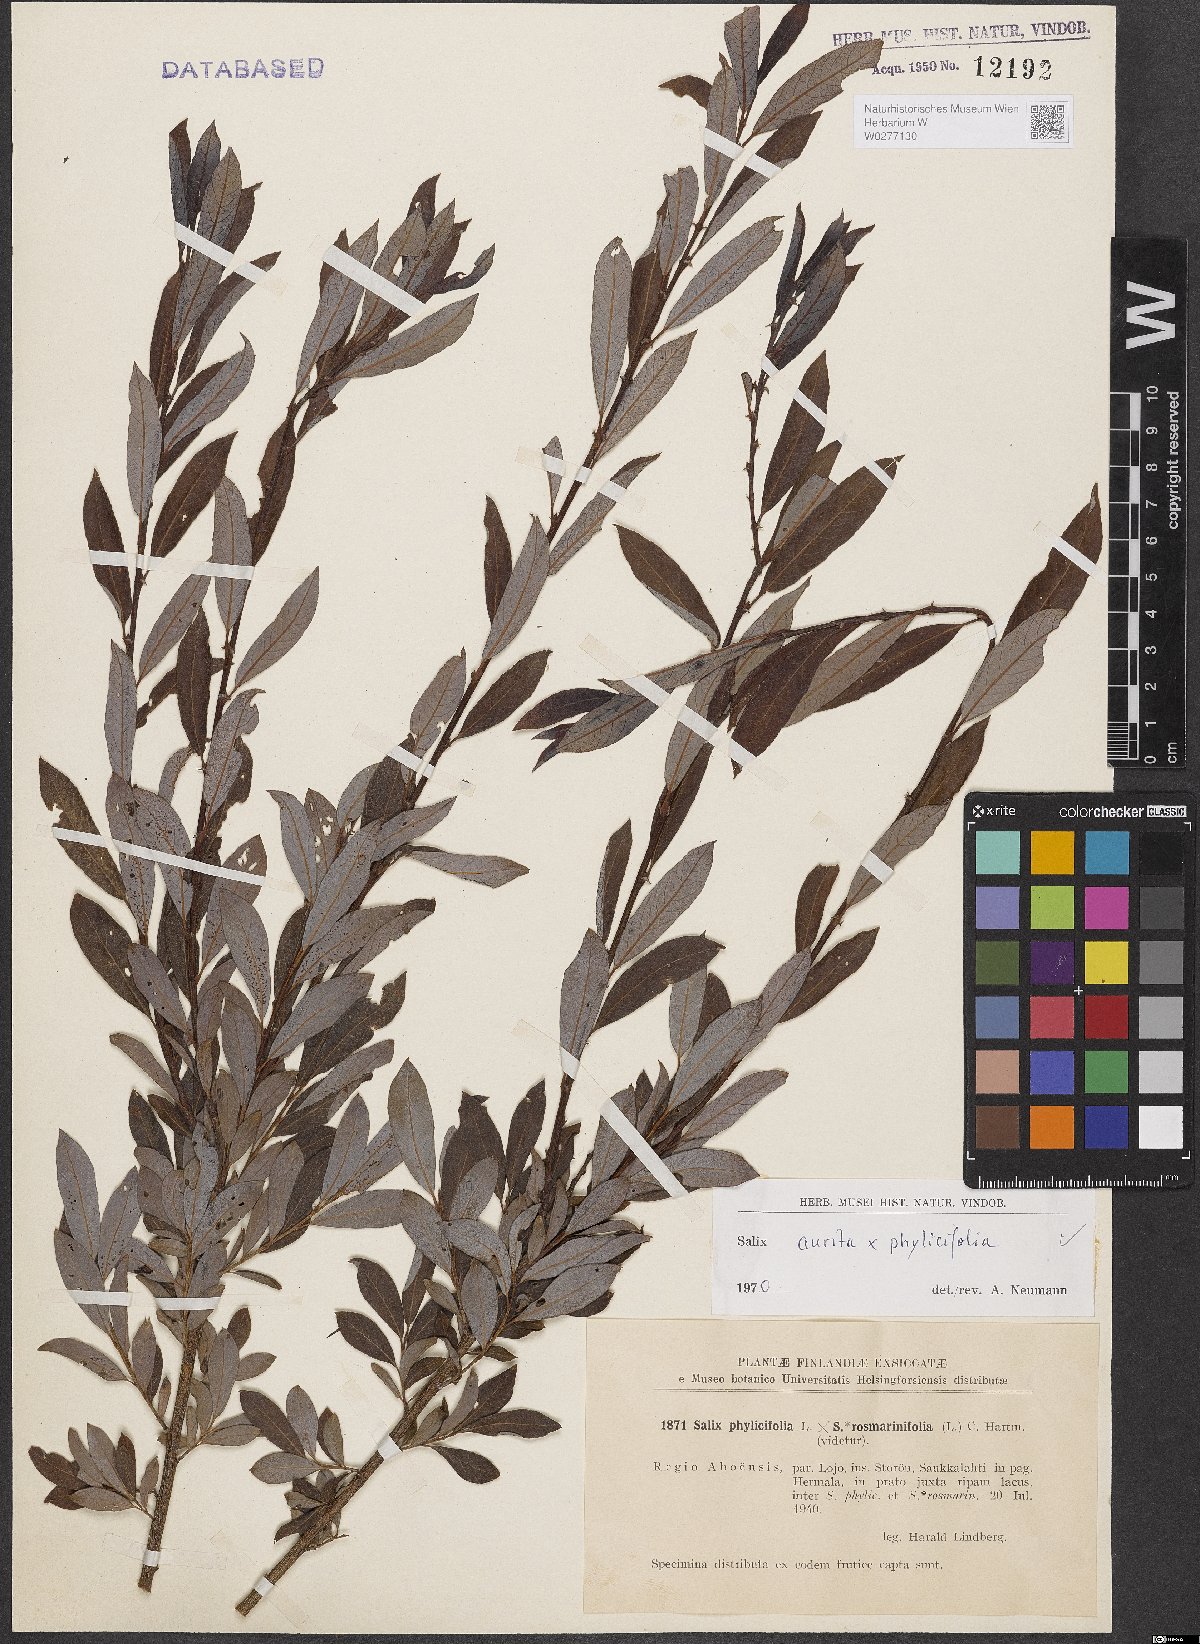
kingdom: Plantae
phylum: Tracheophyta
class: Magnoliopsida
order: Malpighiales
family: Salicaceae
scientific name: Salicaceae
